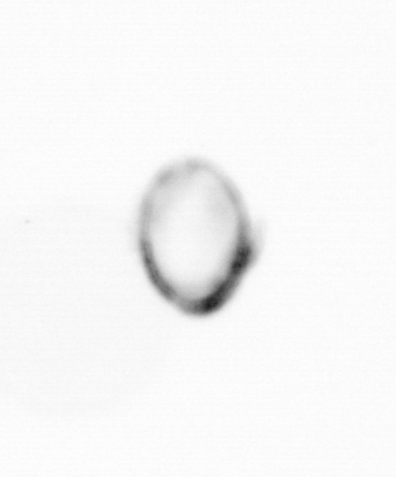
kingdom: Chromista
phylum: Myzozoa
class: Dinophyceae
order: Noctilucales
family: Noctilucaceae
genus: Noctiluca
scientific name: Noctiluca scintillans
